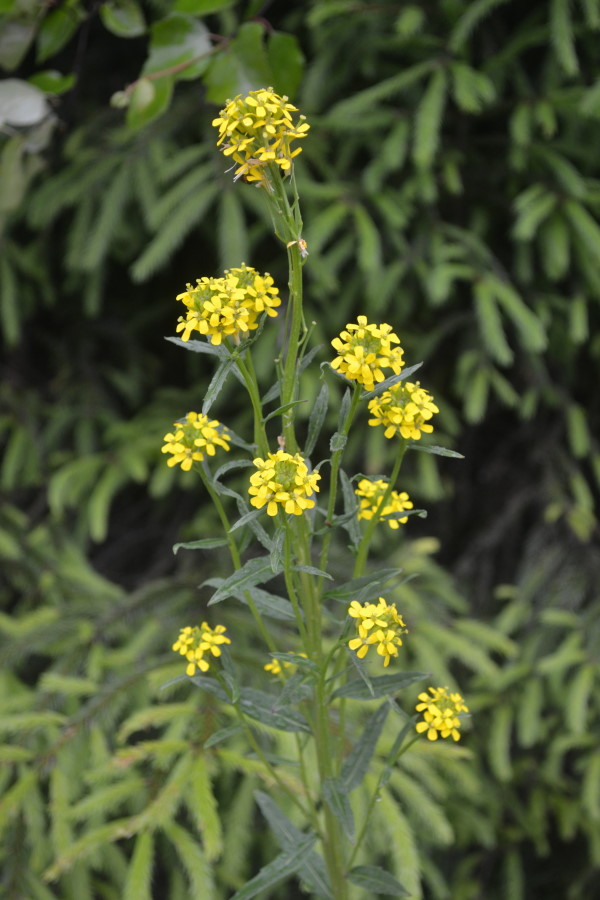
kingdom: Plantae
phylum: Tracheophyta
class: Magnoliopsida
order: Brassicales
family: Brassicaceae
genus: Erysimum
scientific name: Erysimum cheiranthoides
